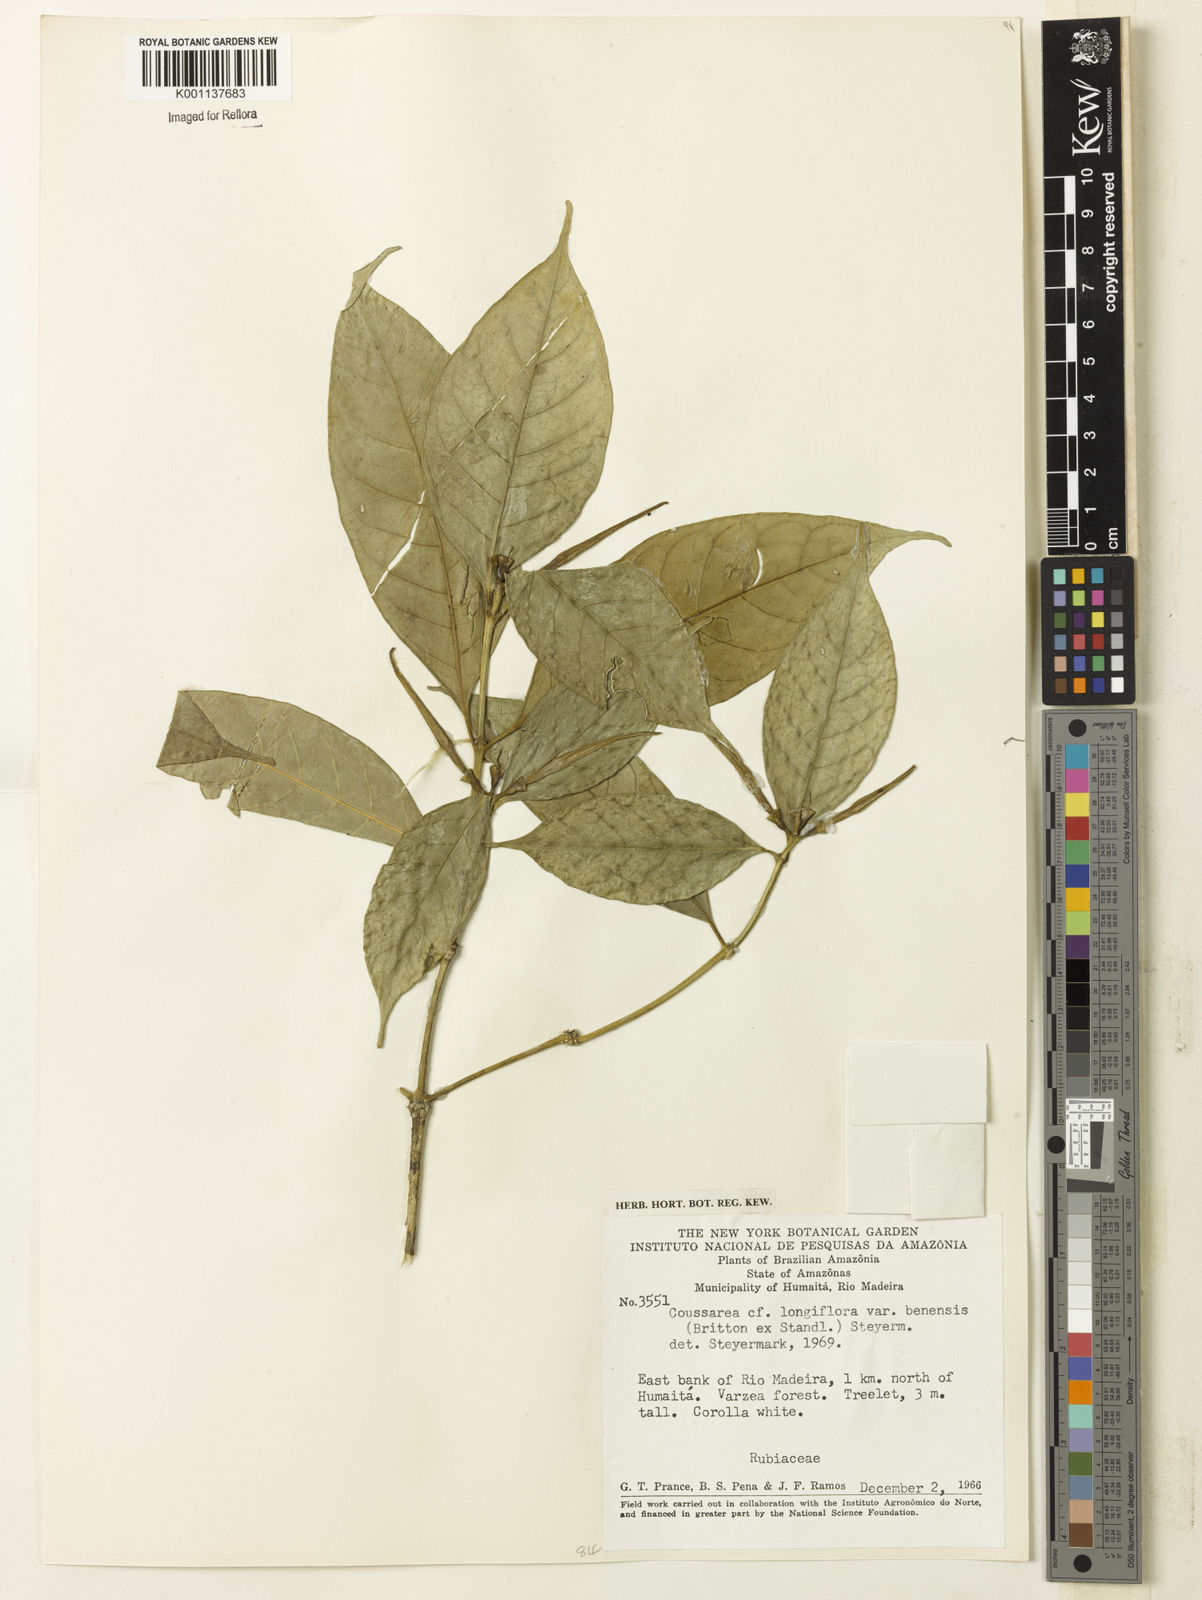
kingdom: Plantae
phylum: Tracheophyta
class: Magnoliopsida
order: Gentianales
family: Rubiaceae
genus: Coussarea
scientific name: Coussarea
